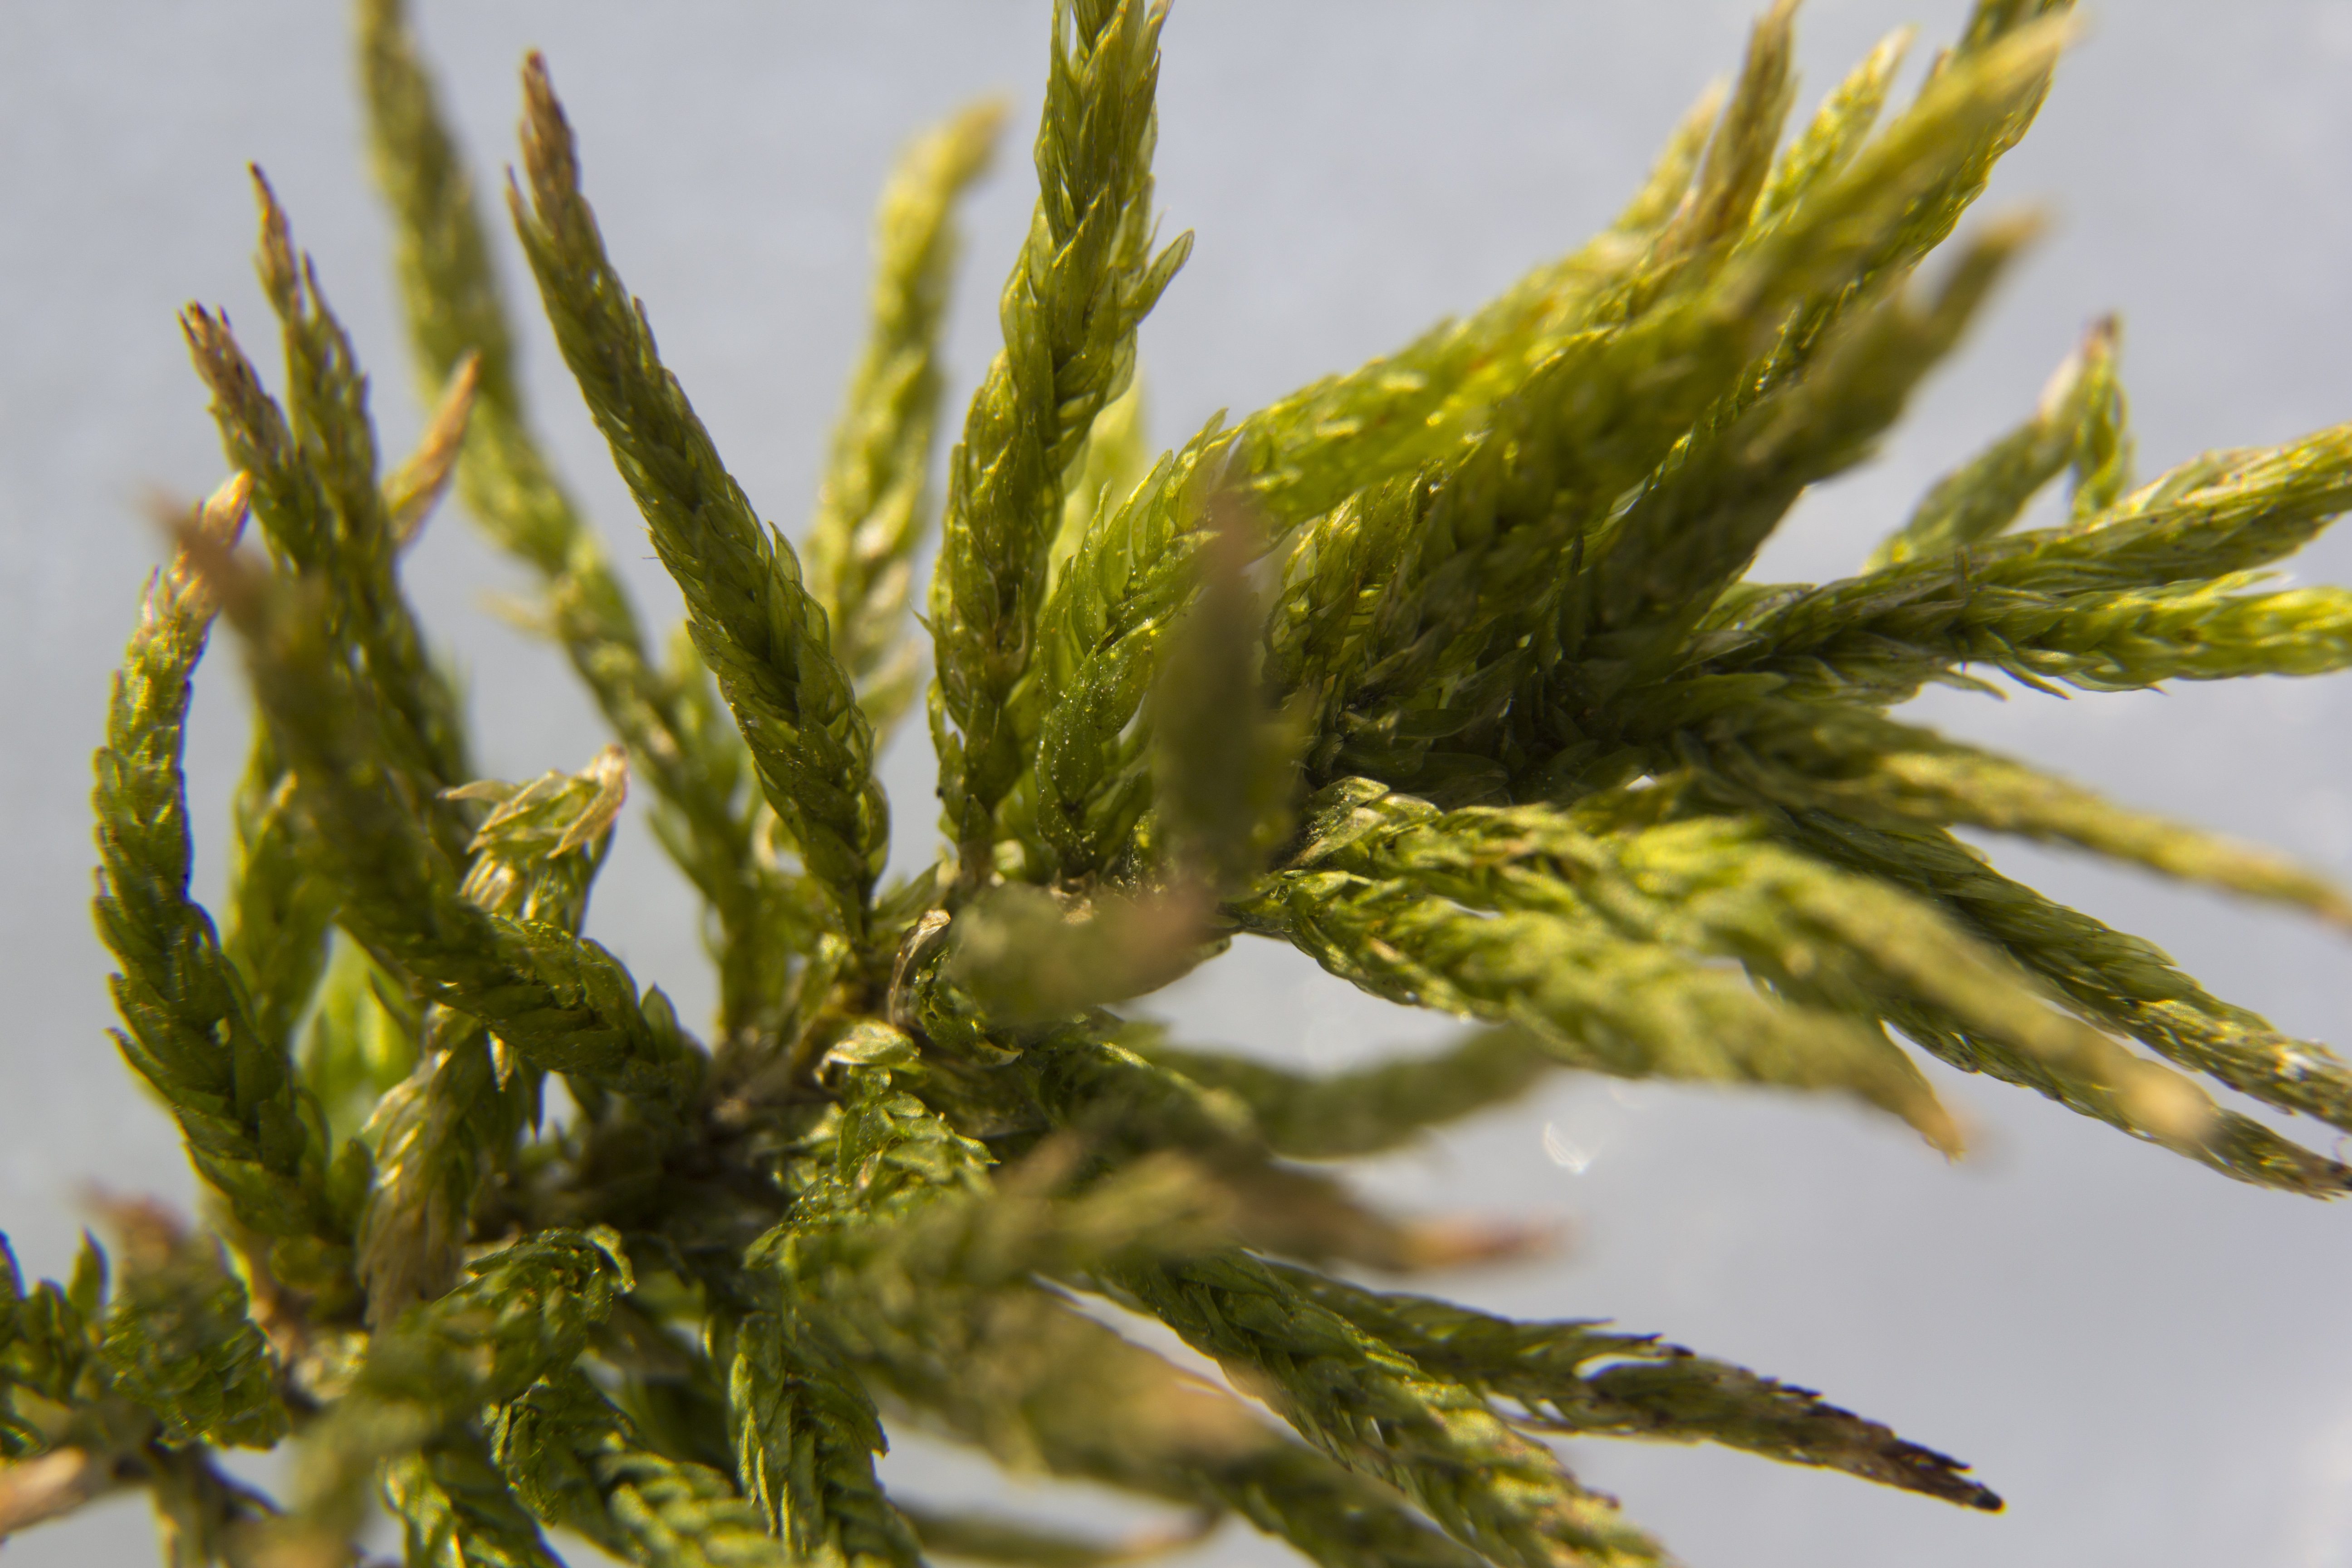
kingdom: Plantae
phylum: Bryophyta
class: Bryopsida
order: Hypnales
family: Climaciaceae
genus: Climacium
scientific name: Climacium dendroides
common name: Northern tree moss
